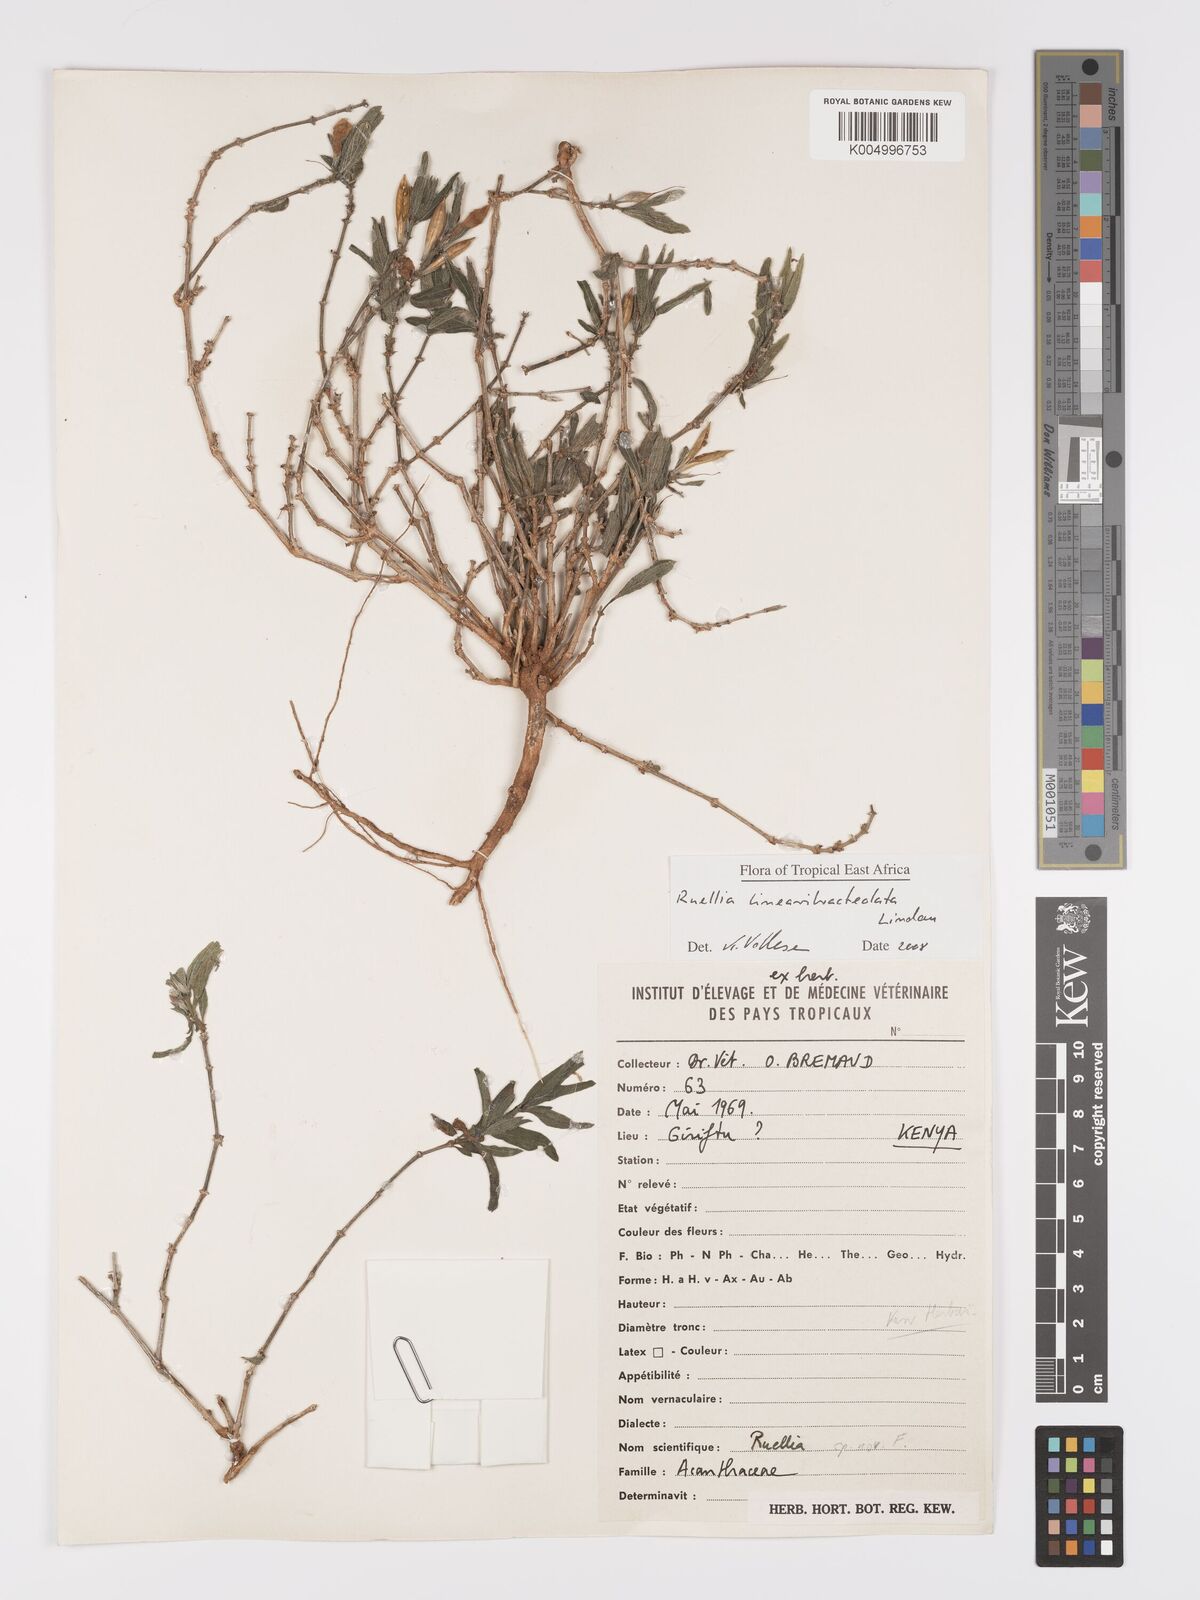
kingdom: Plantae
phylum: Tracheophyta
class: Magnoliopsida
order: Lamiales
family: Acanthaceae
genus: Ruellia
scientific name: Ruellia linearibracteolata
